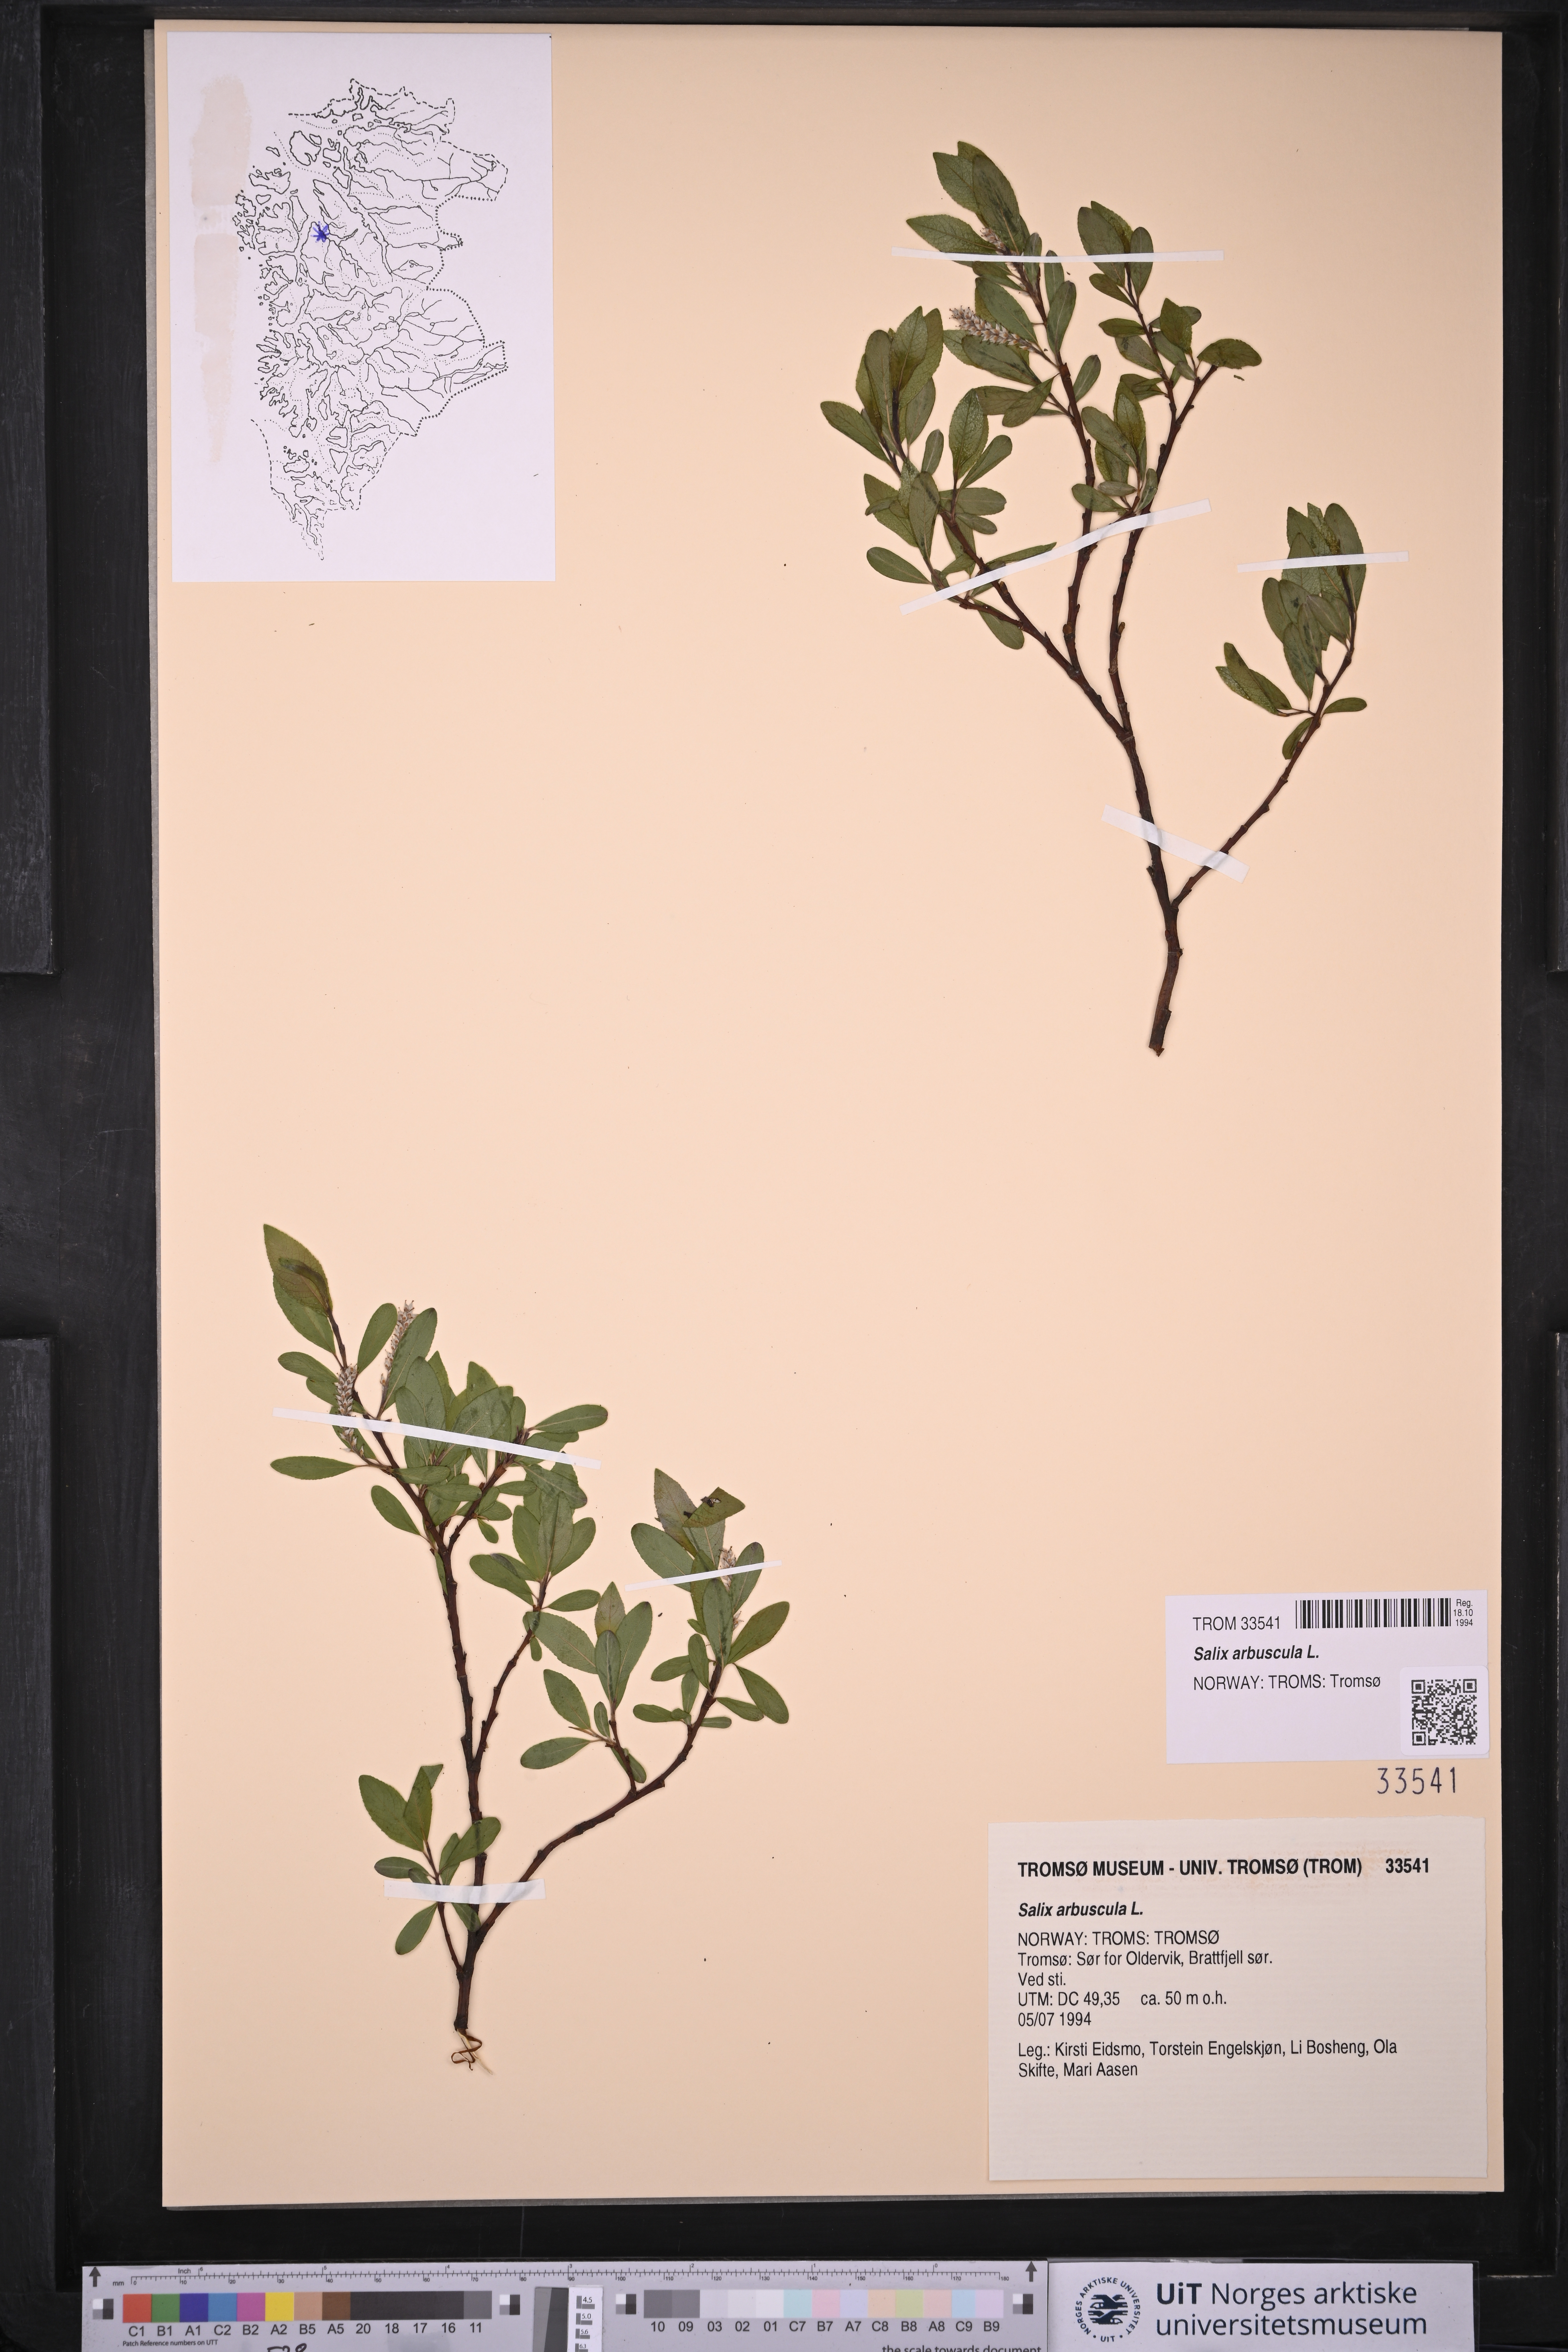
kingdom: Plantae
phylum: Tracheophyta
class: Magnoliopsida
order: Malpighiales
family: Salicaceae
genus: Salix
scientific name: Salix arbuscula
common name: Mountain willow
